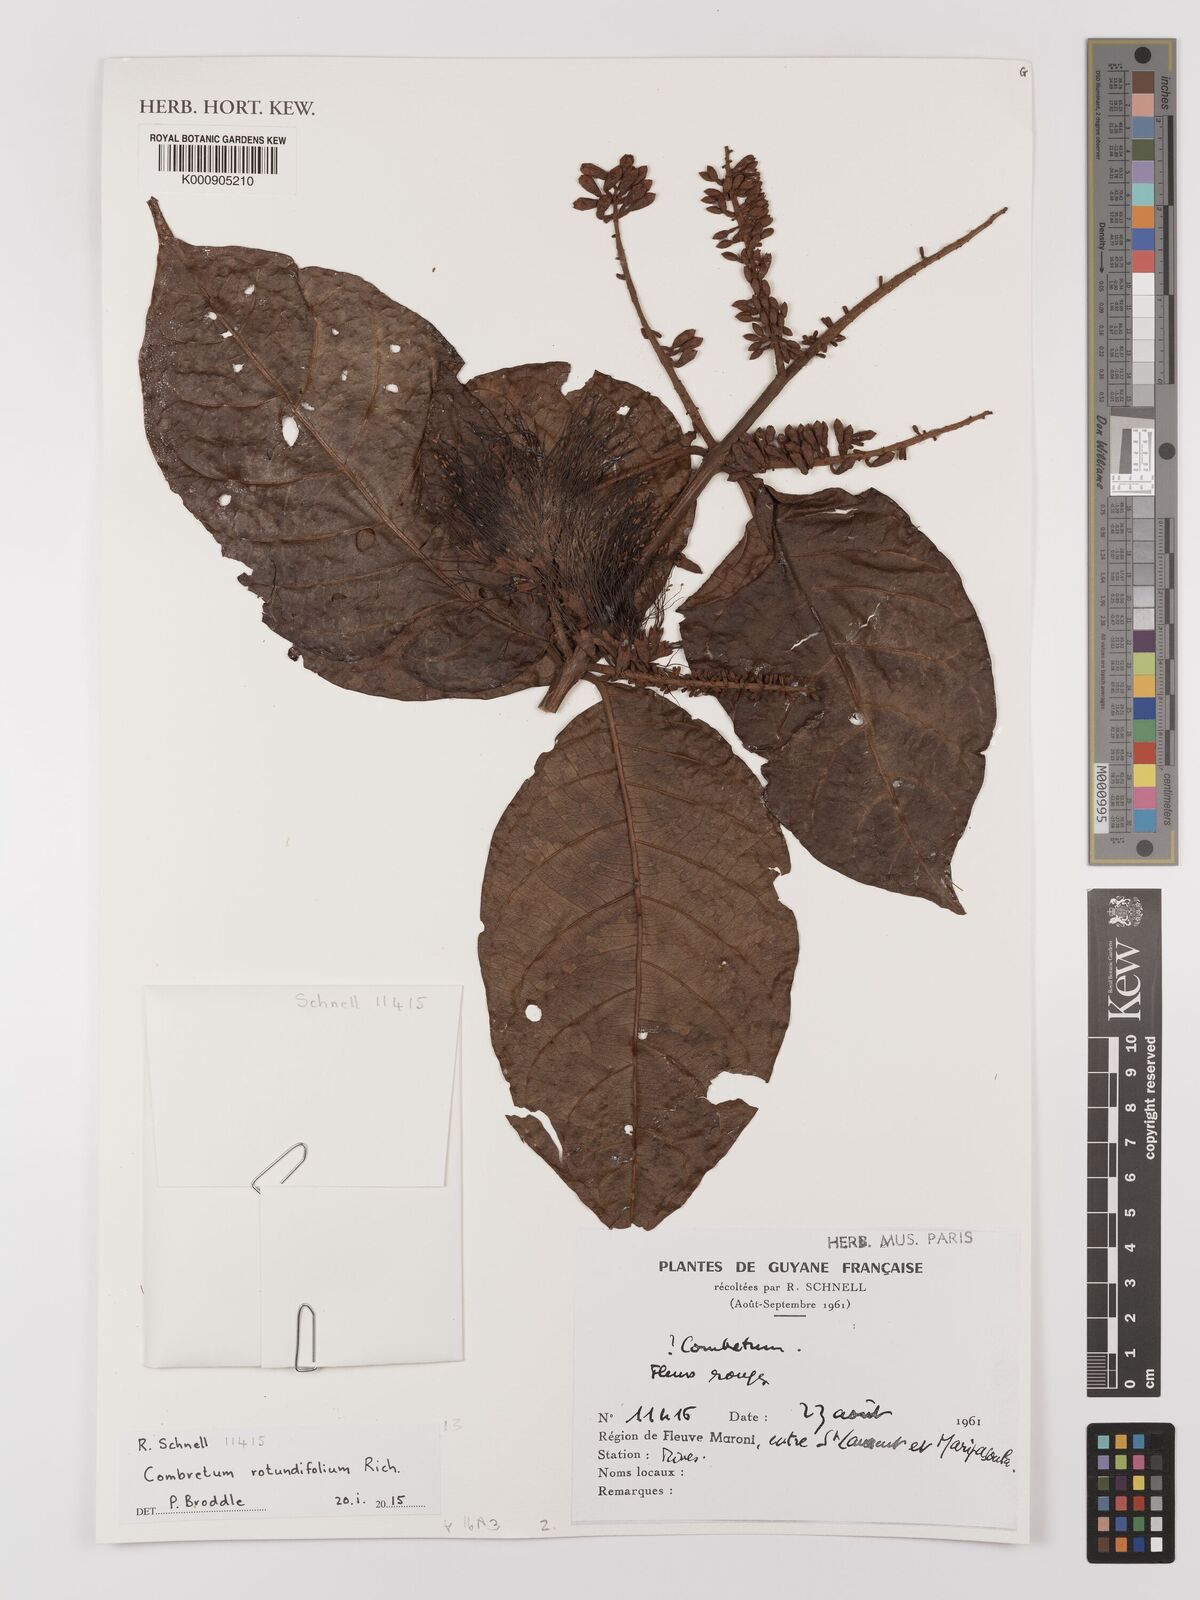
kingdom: Plantae
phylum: Tracheophyta
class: Magnoliopsida
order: Myrtales
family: Combretaceae
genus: Combretum
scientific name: Combretum rotundifolium
